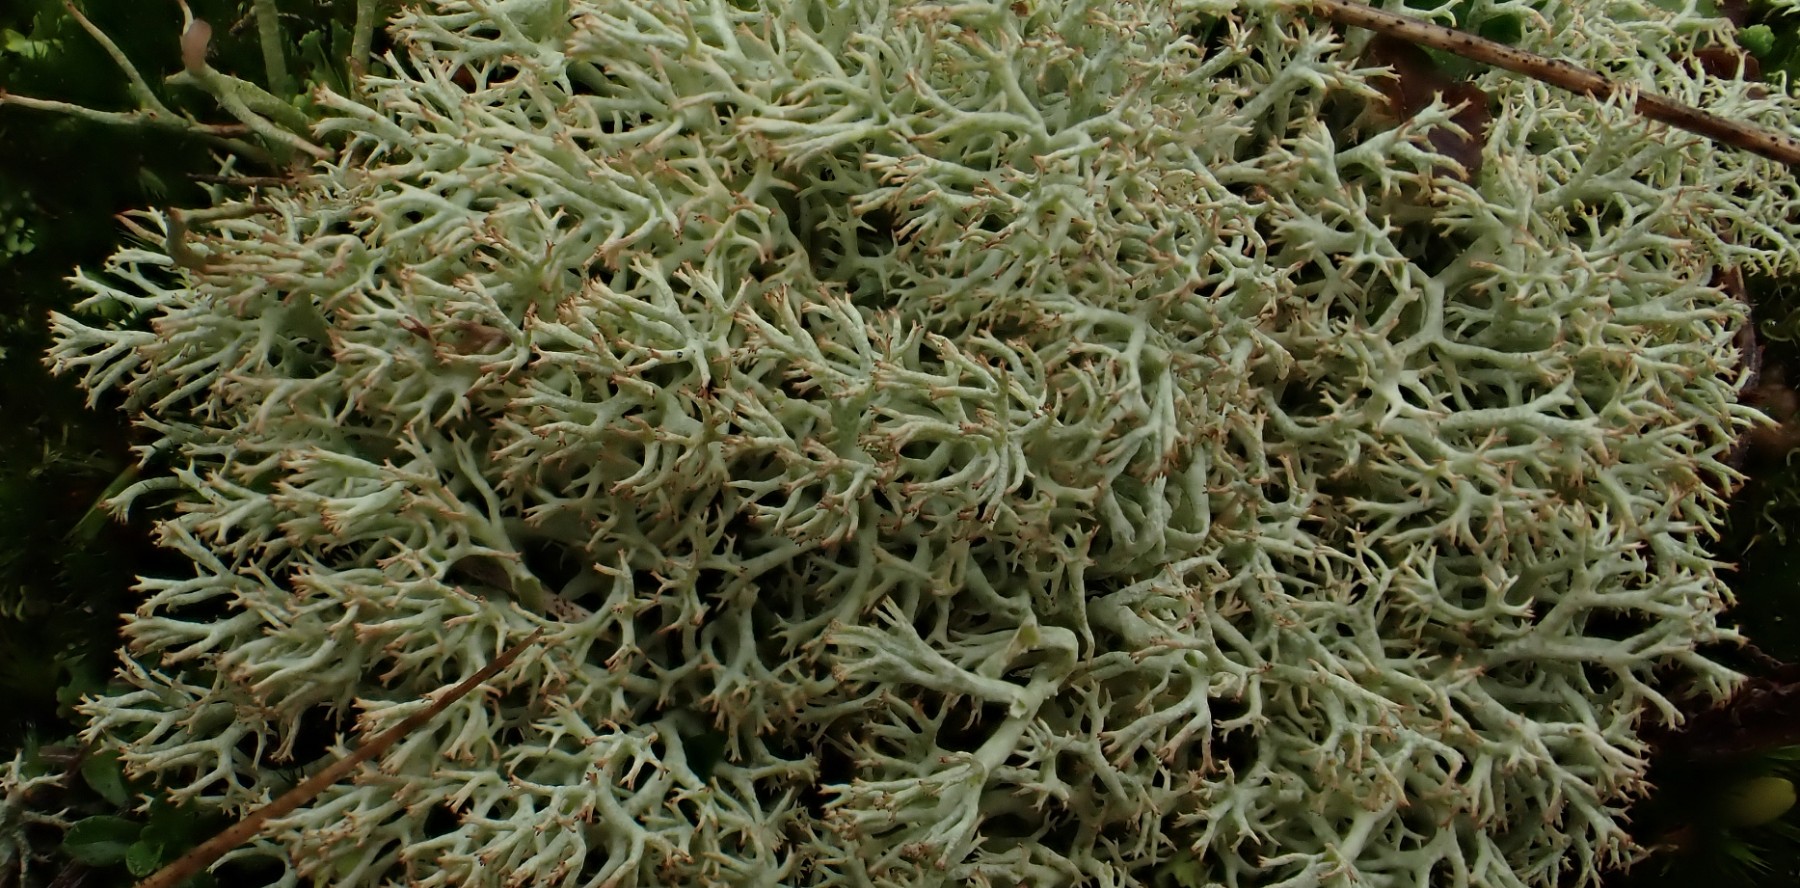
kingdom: Fungi
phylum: Ascomycota
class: Lecanoromycetes
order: Lecanorales
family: Cladoniaceae
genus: Cladonia
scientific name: Cladonia ciliata
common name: spinkel rensdyrlav
